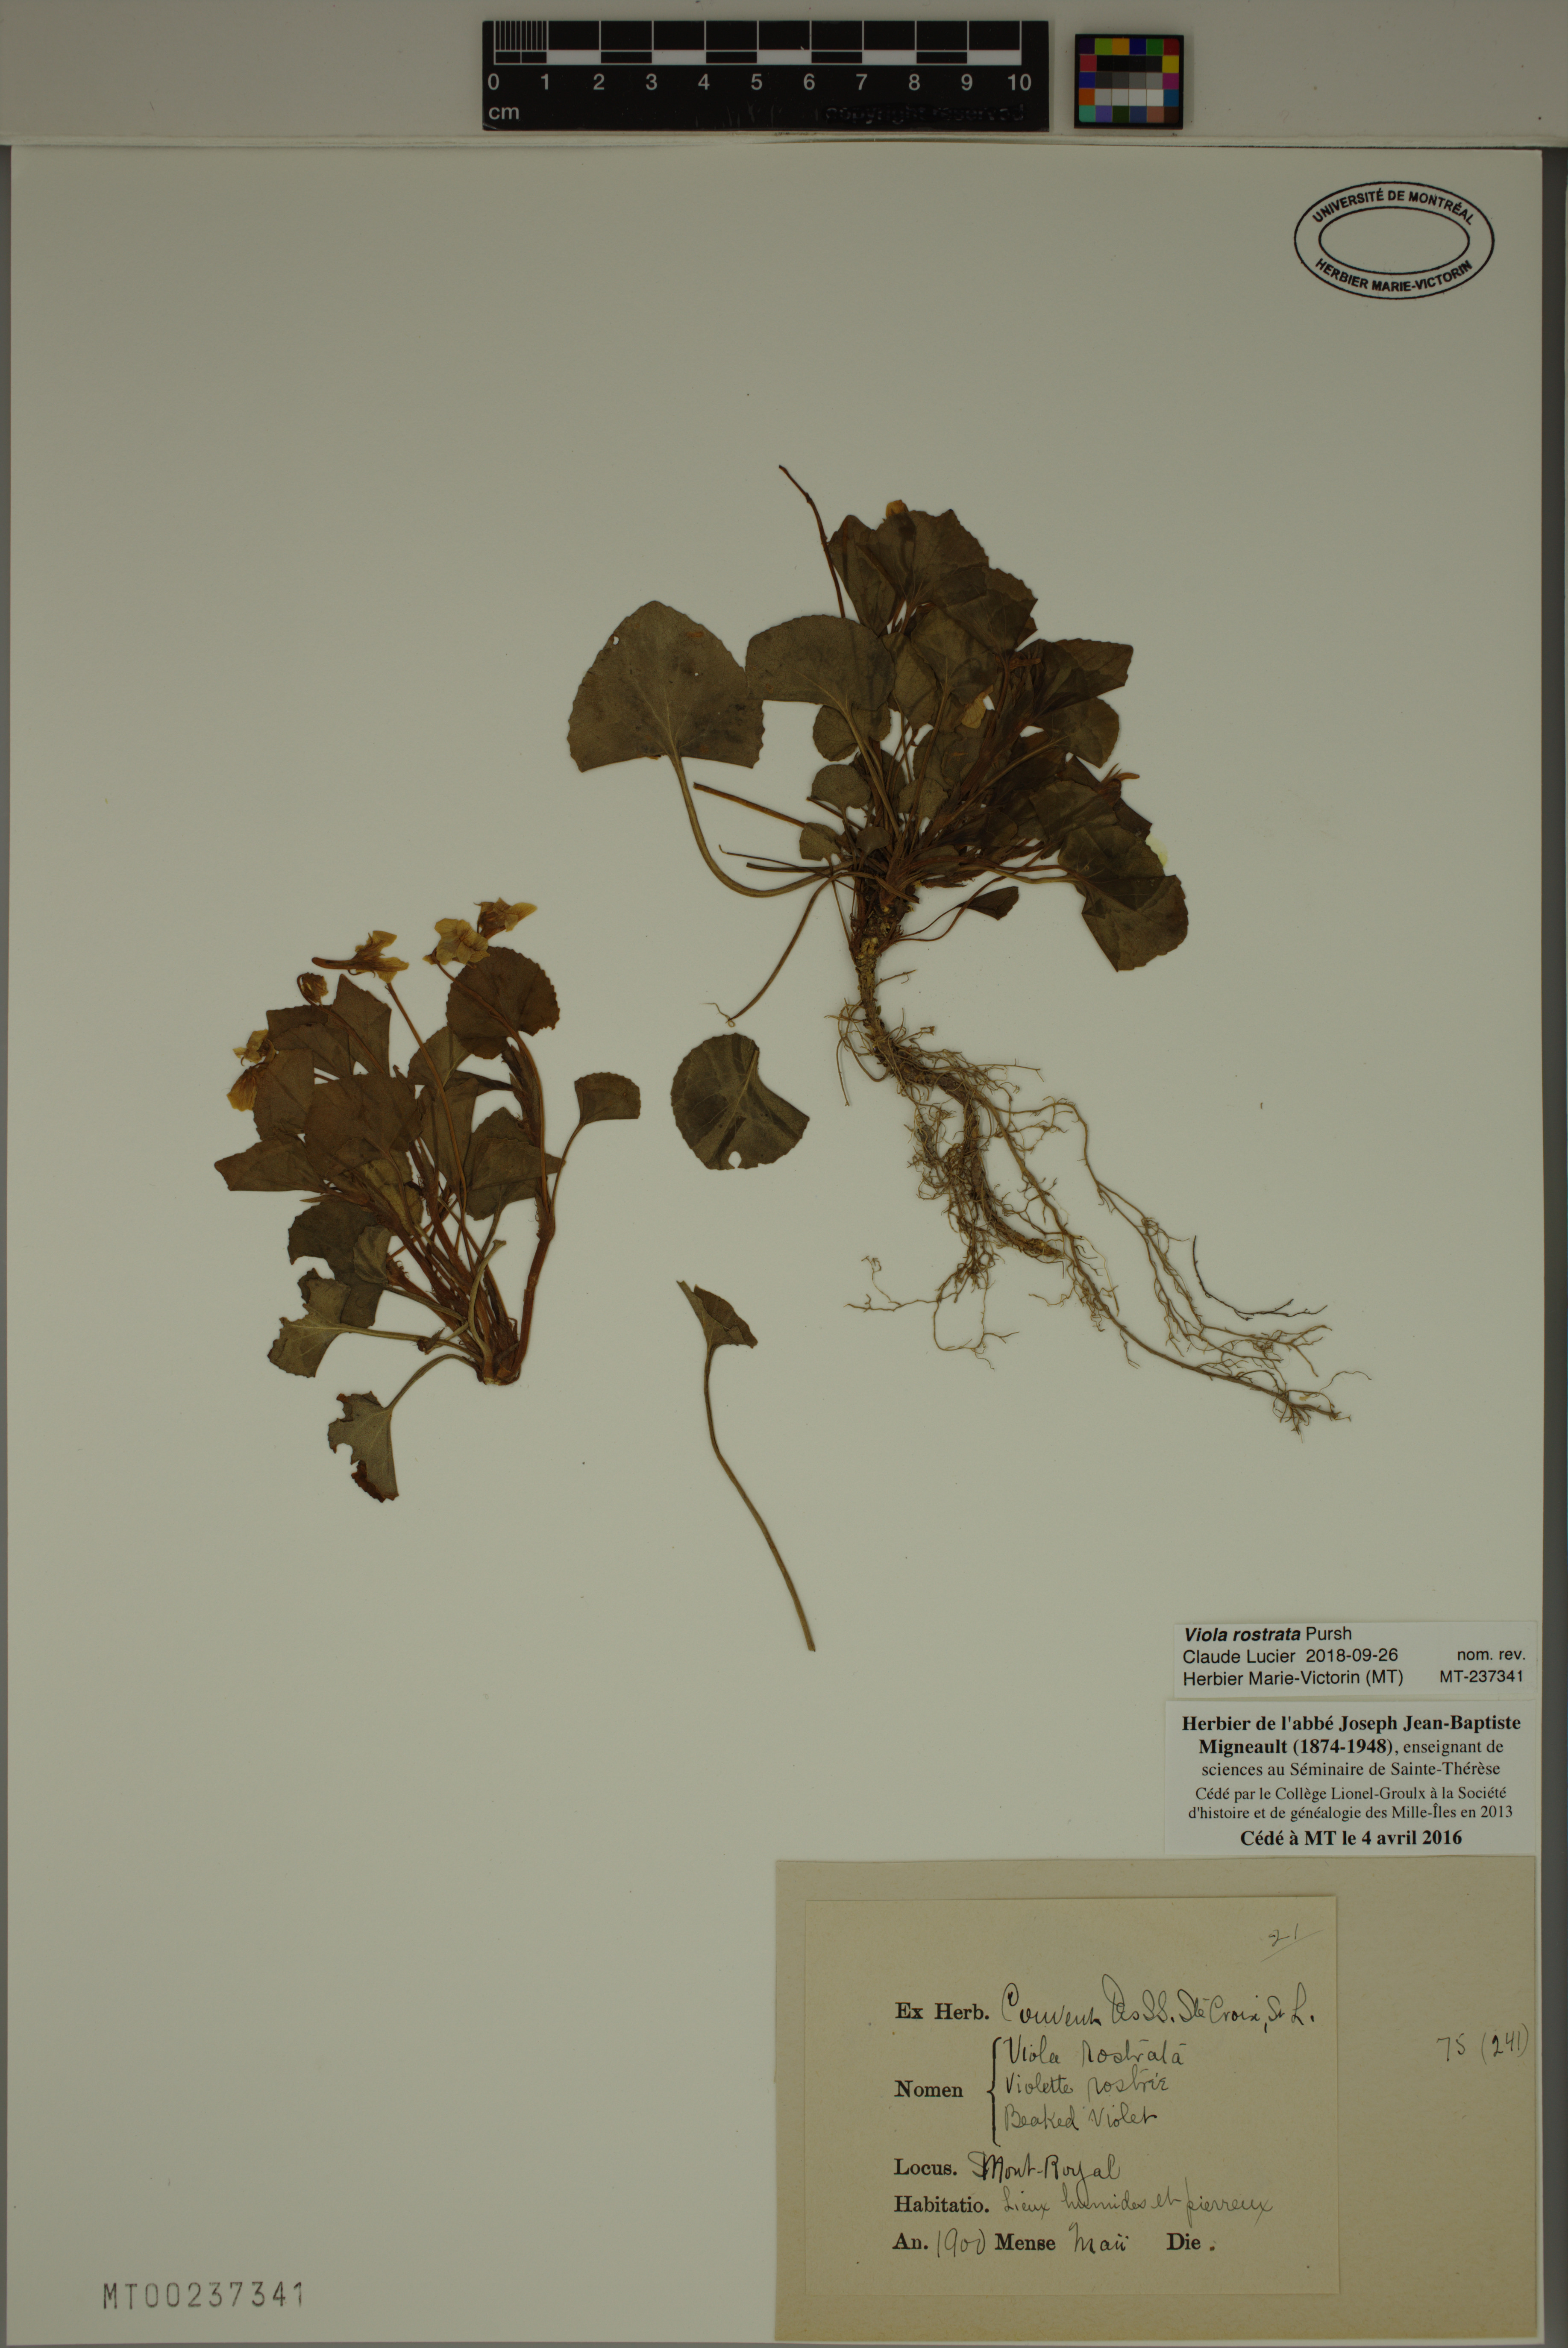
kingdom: Plantae
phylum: Tracheophyta
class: Magnoliopsida
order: Malpighiales
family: Violaceae
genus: Viola
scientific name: Viola rostrata
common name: Long-spur violet
